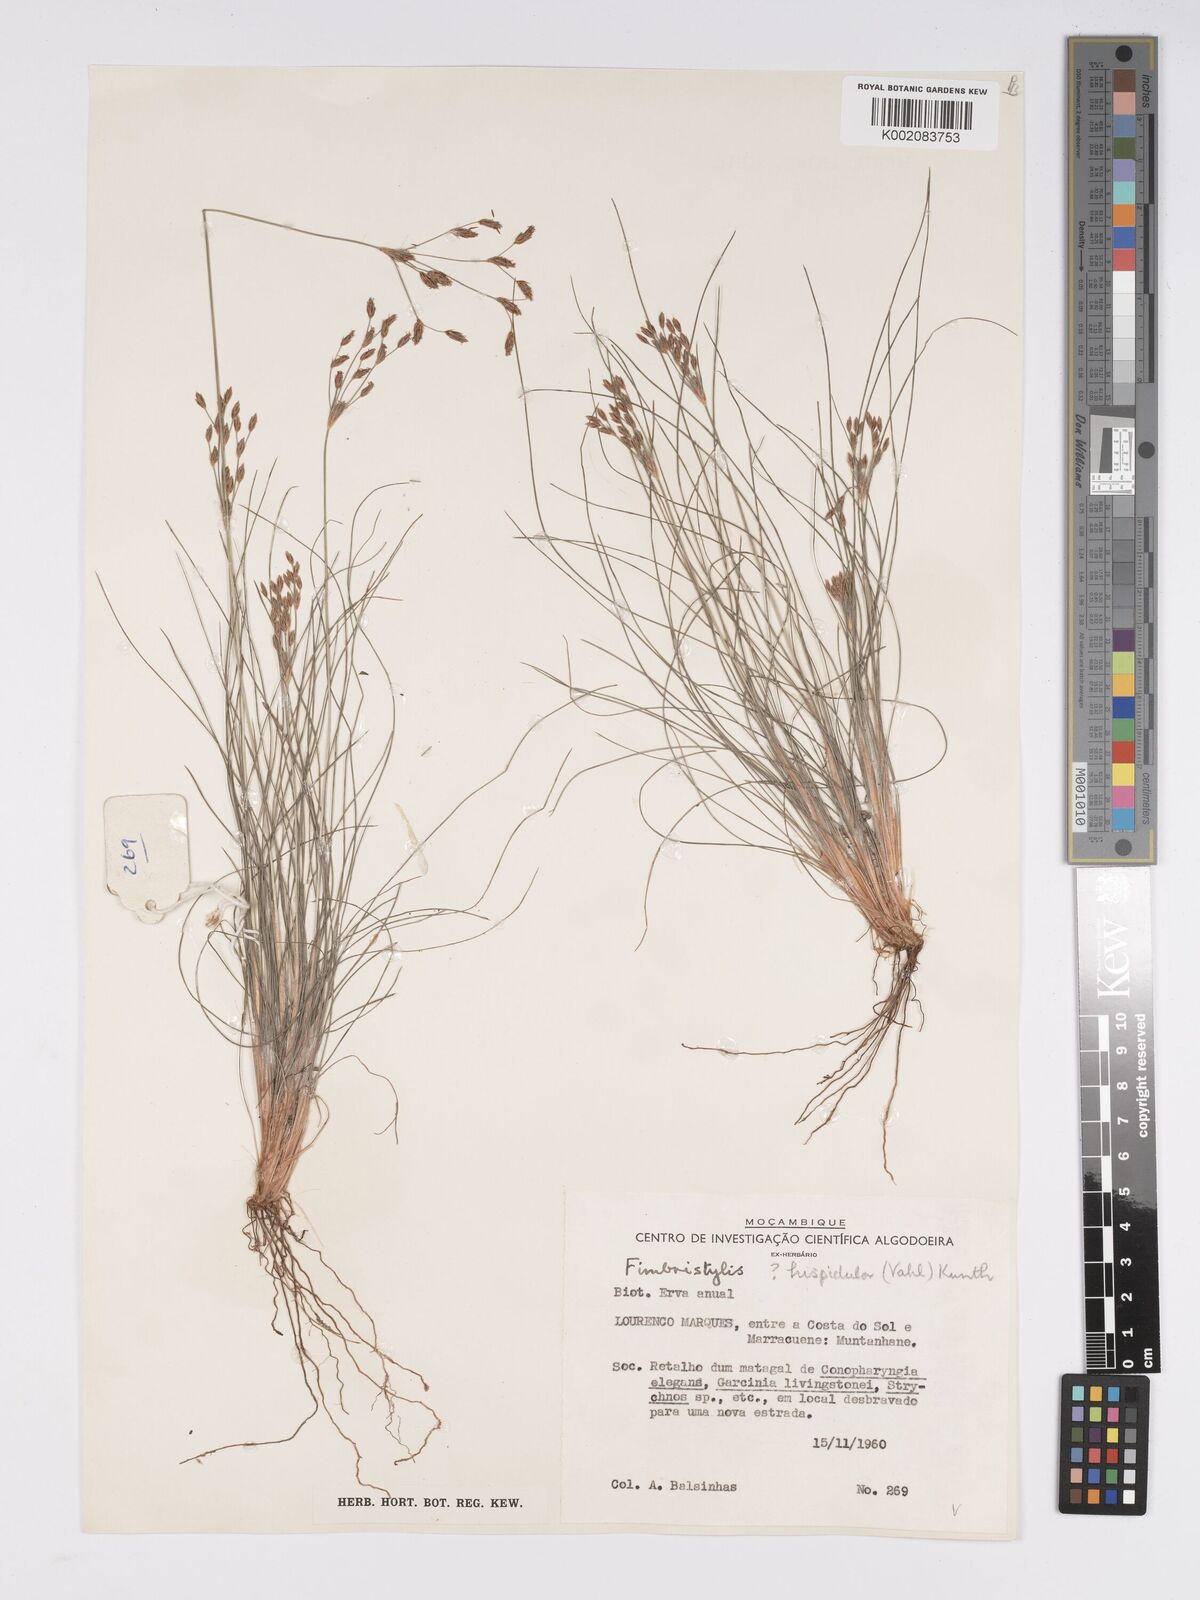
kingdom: Plantae
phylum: Tracheophyta
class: Liliopsida
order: Poales
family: Cyperaceae
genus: Bulbostylis
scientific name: Bulbostylis hispidula
